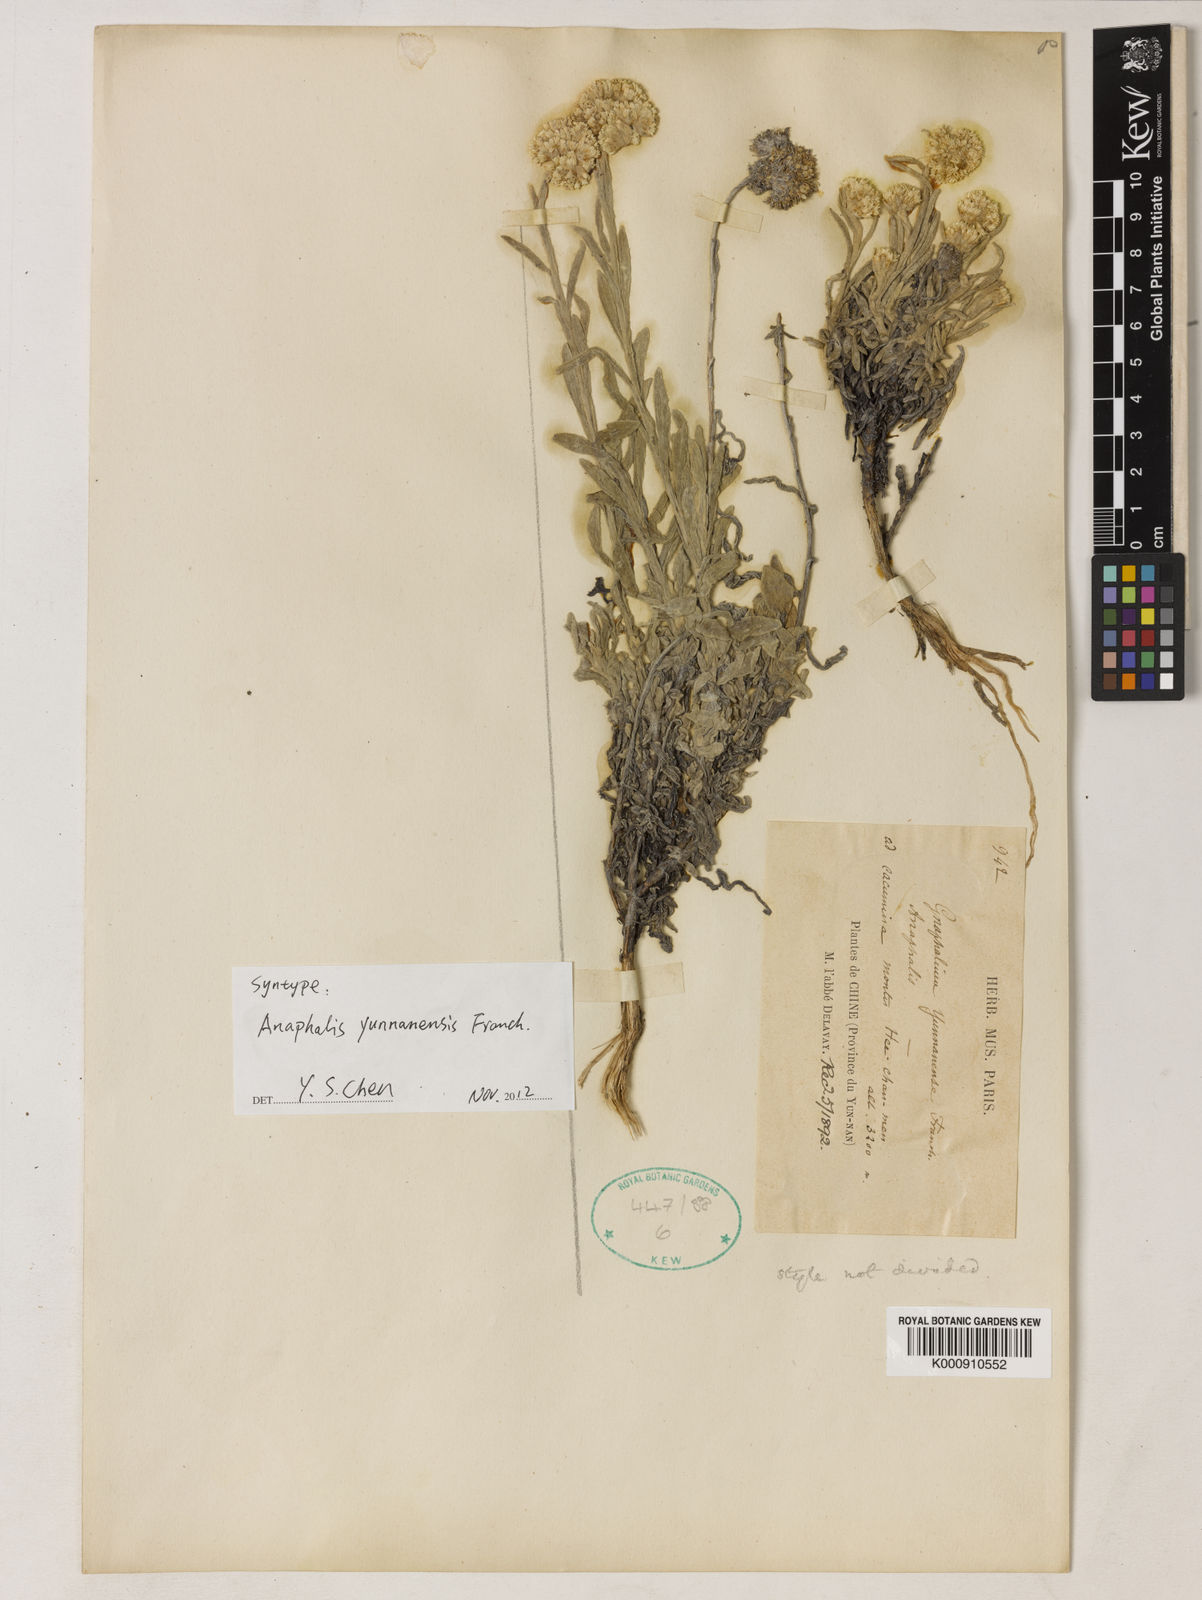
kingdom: Plantae
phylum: Tracheophyta
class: Magnoliopsida
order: Asterales
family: Asteraceae
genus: Anaphalis
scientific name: Anaphalis yunnanensis
